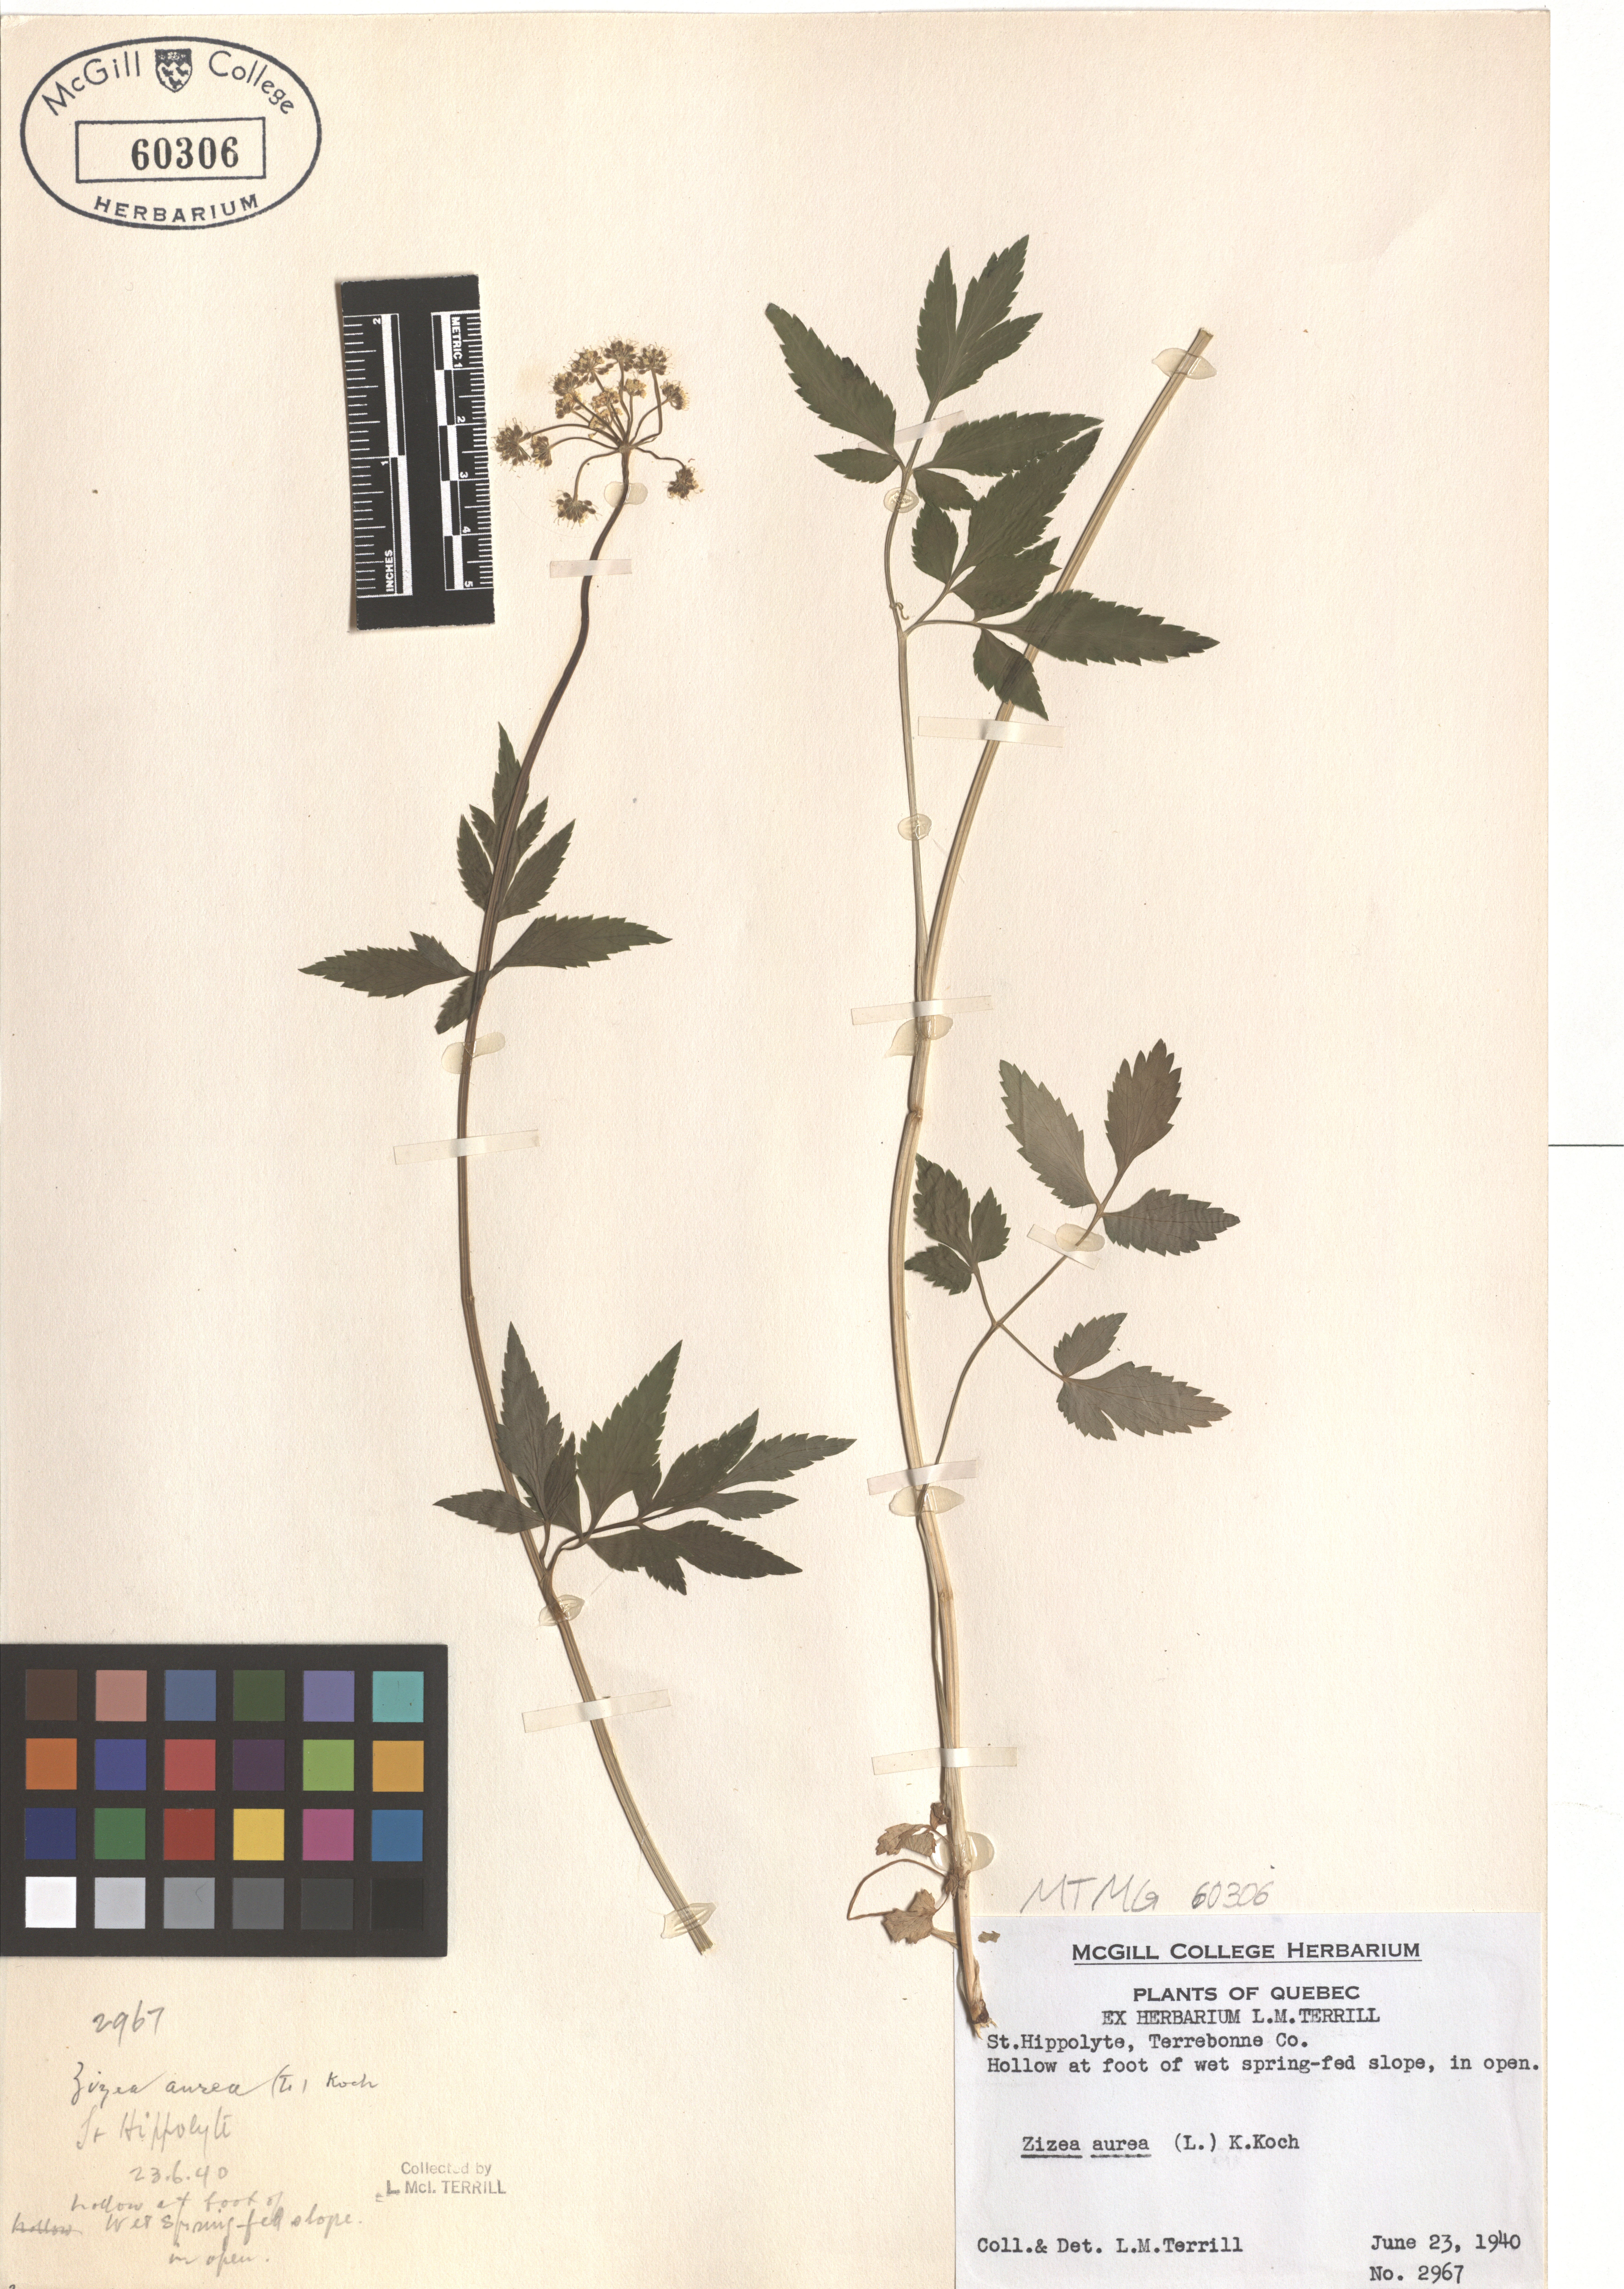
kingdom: Plantae
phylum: Tracheophyta
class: Magnoliopsida
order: Apiales
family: Apiaceae
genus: Zizia
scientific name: Zizia aurea
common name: Golden alexanders
